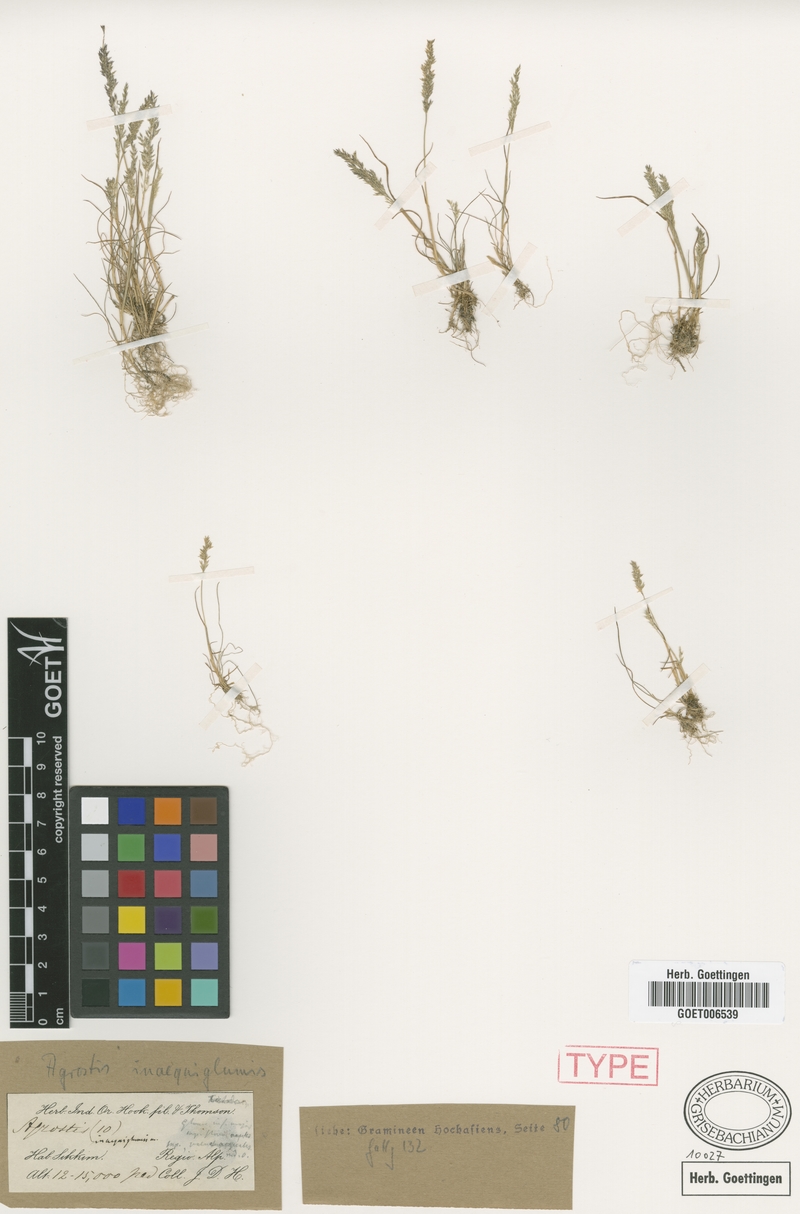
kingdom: Plantae
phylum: Tracheophyta
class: Liliopsida
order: Poales
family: Poaceae
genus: Agrostis
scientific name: Agrostis inaequiglumis
